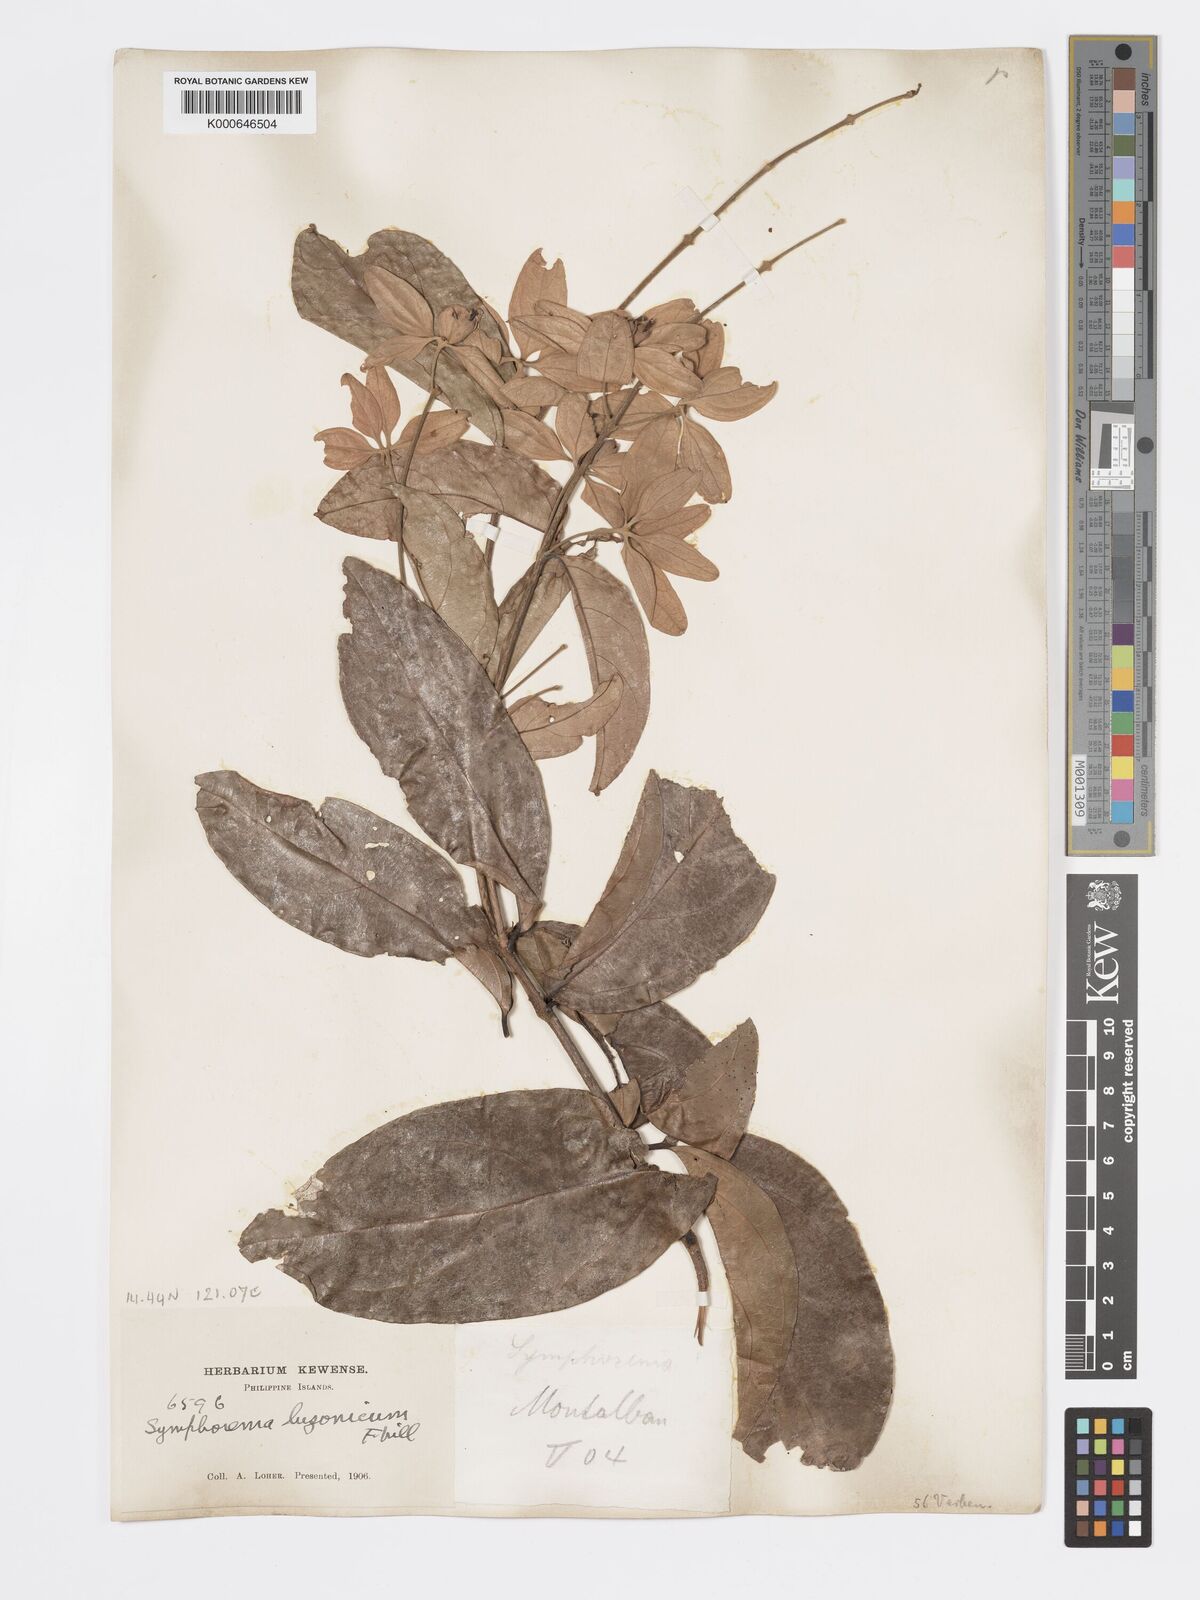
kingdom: Plantae
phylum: Tracheophyta
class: Magnoliopsida
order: Lamiales
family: Lamiaceae
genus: Symphorema
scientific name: Symphorema luzonicum
